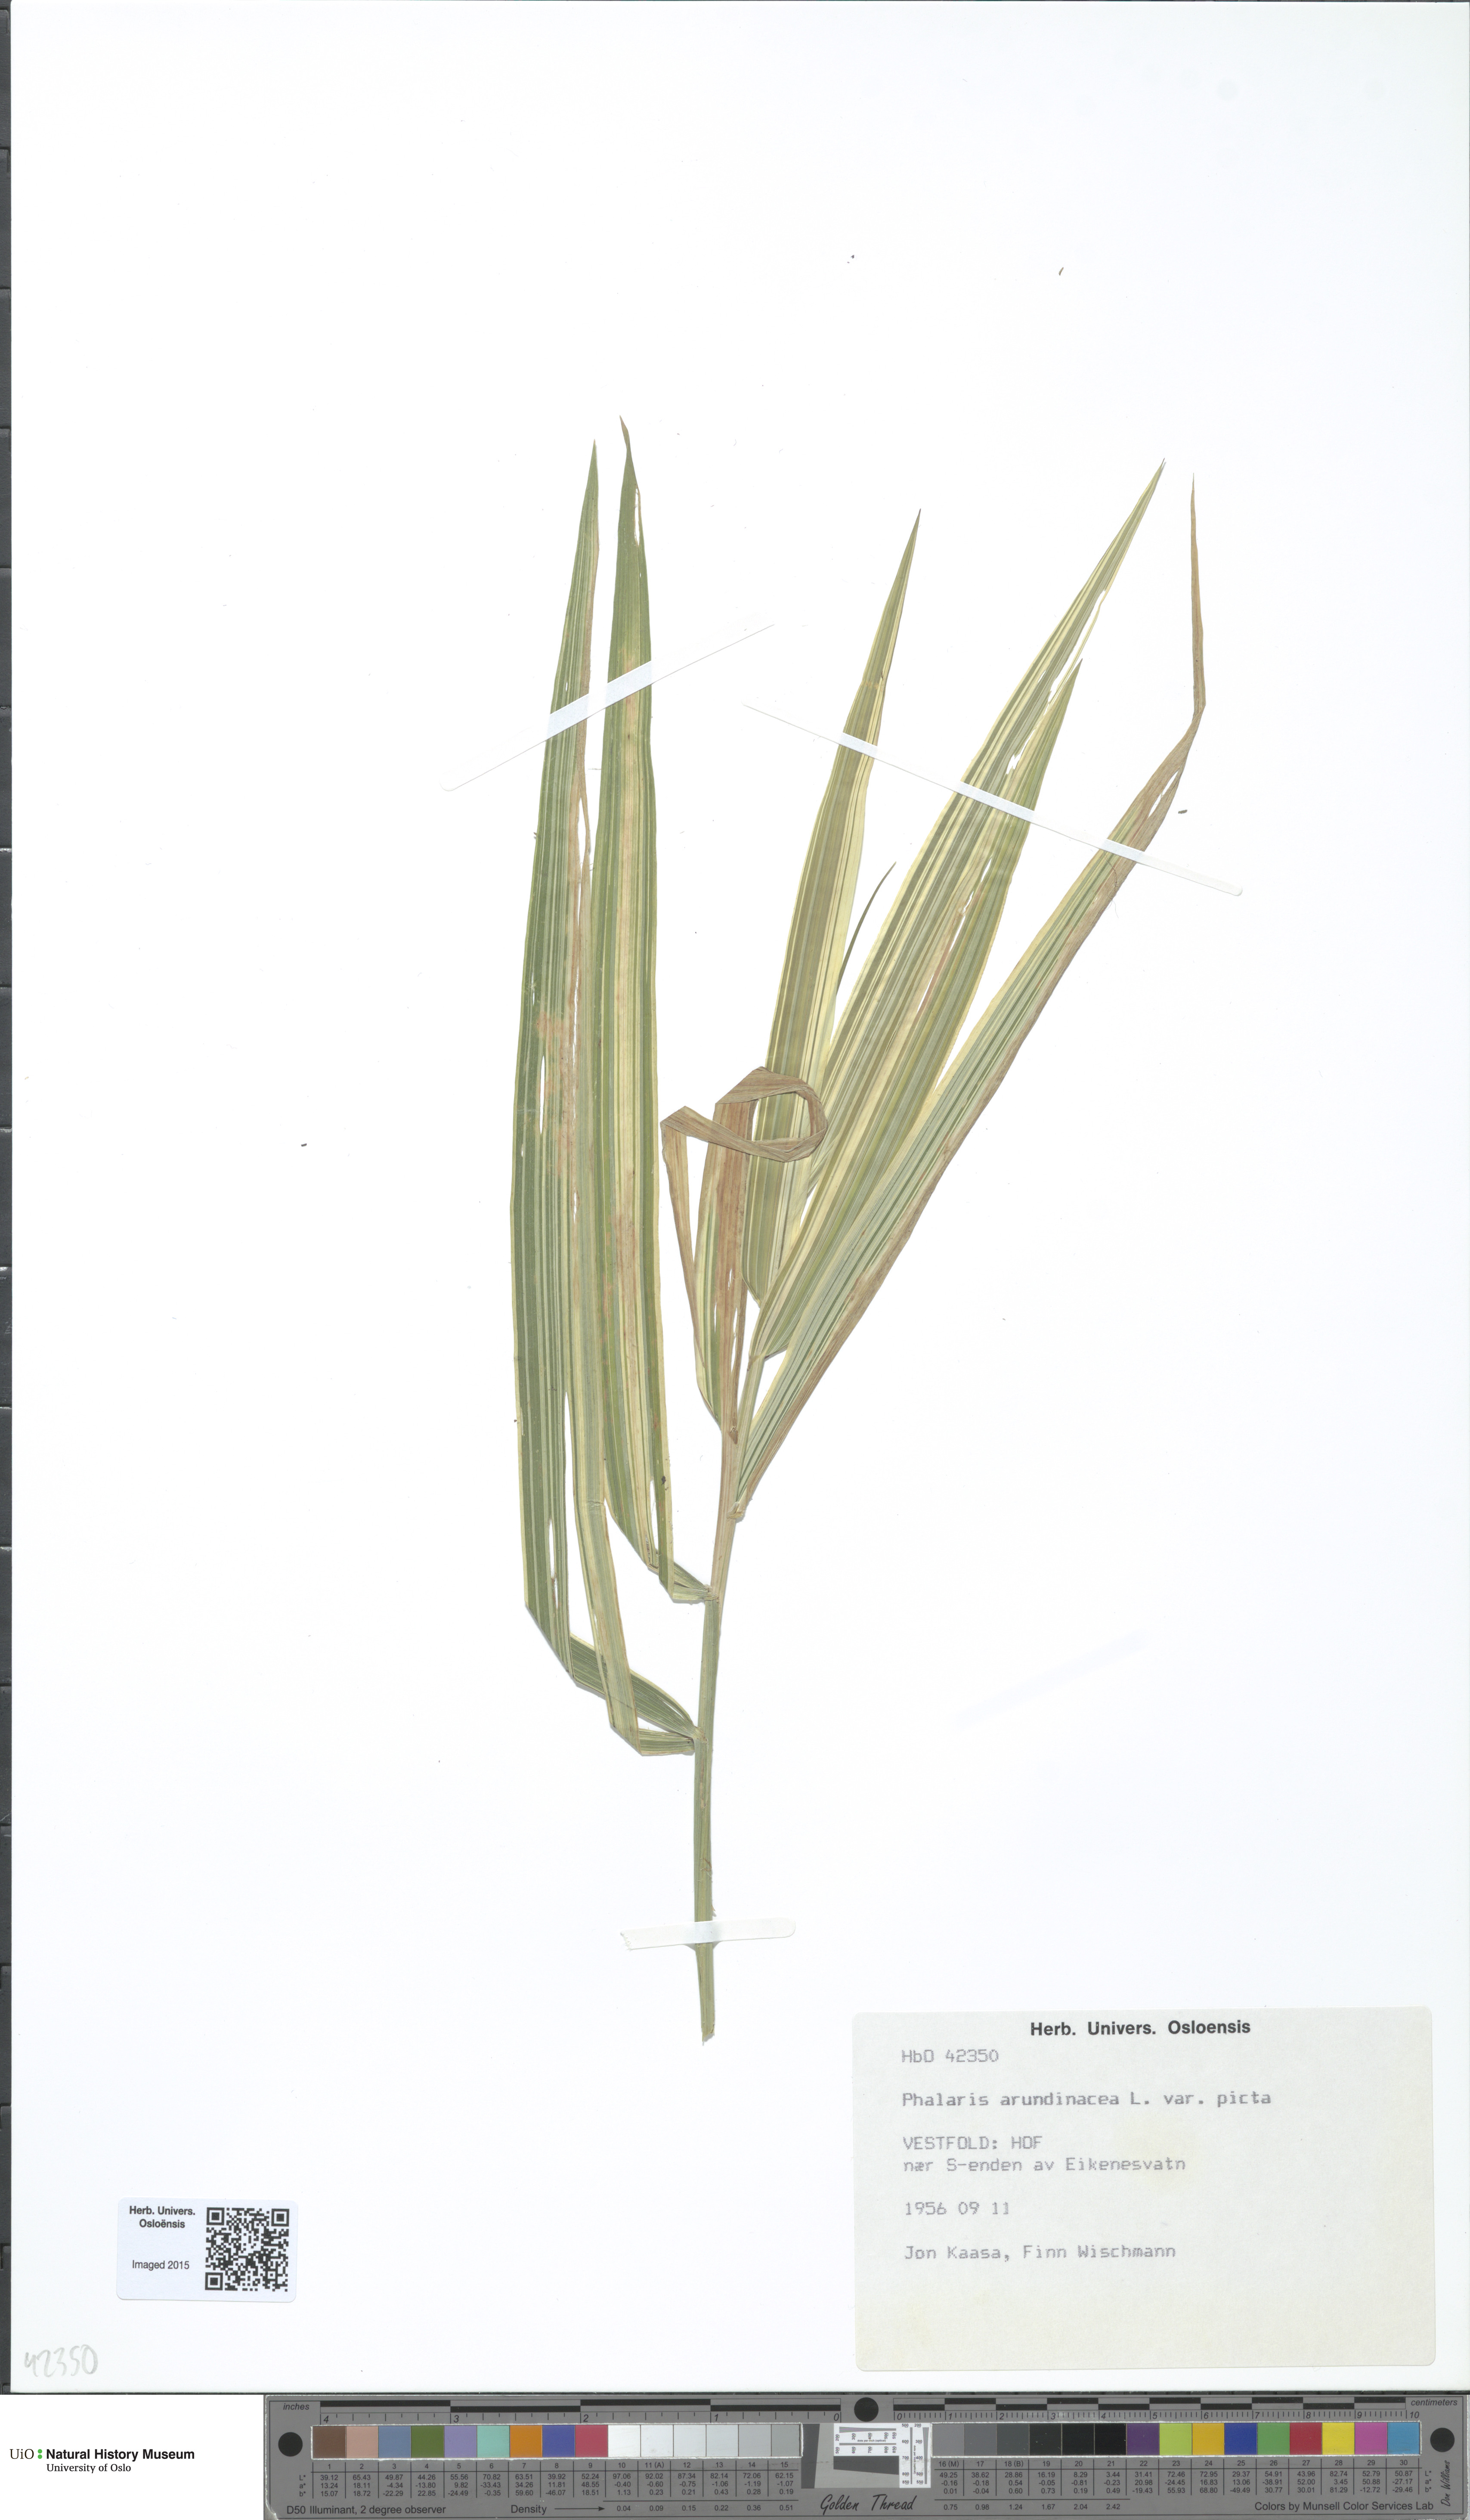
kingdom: Plantae
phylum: Tracheophyta
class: Liliopsida
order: Poales
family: Poaceae
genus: Phalaris
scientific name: Phalaris arundinacea
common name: Reed canary-grass
